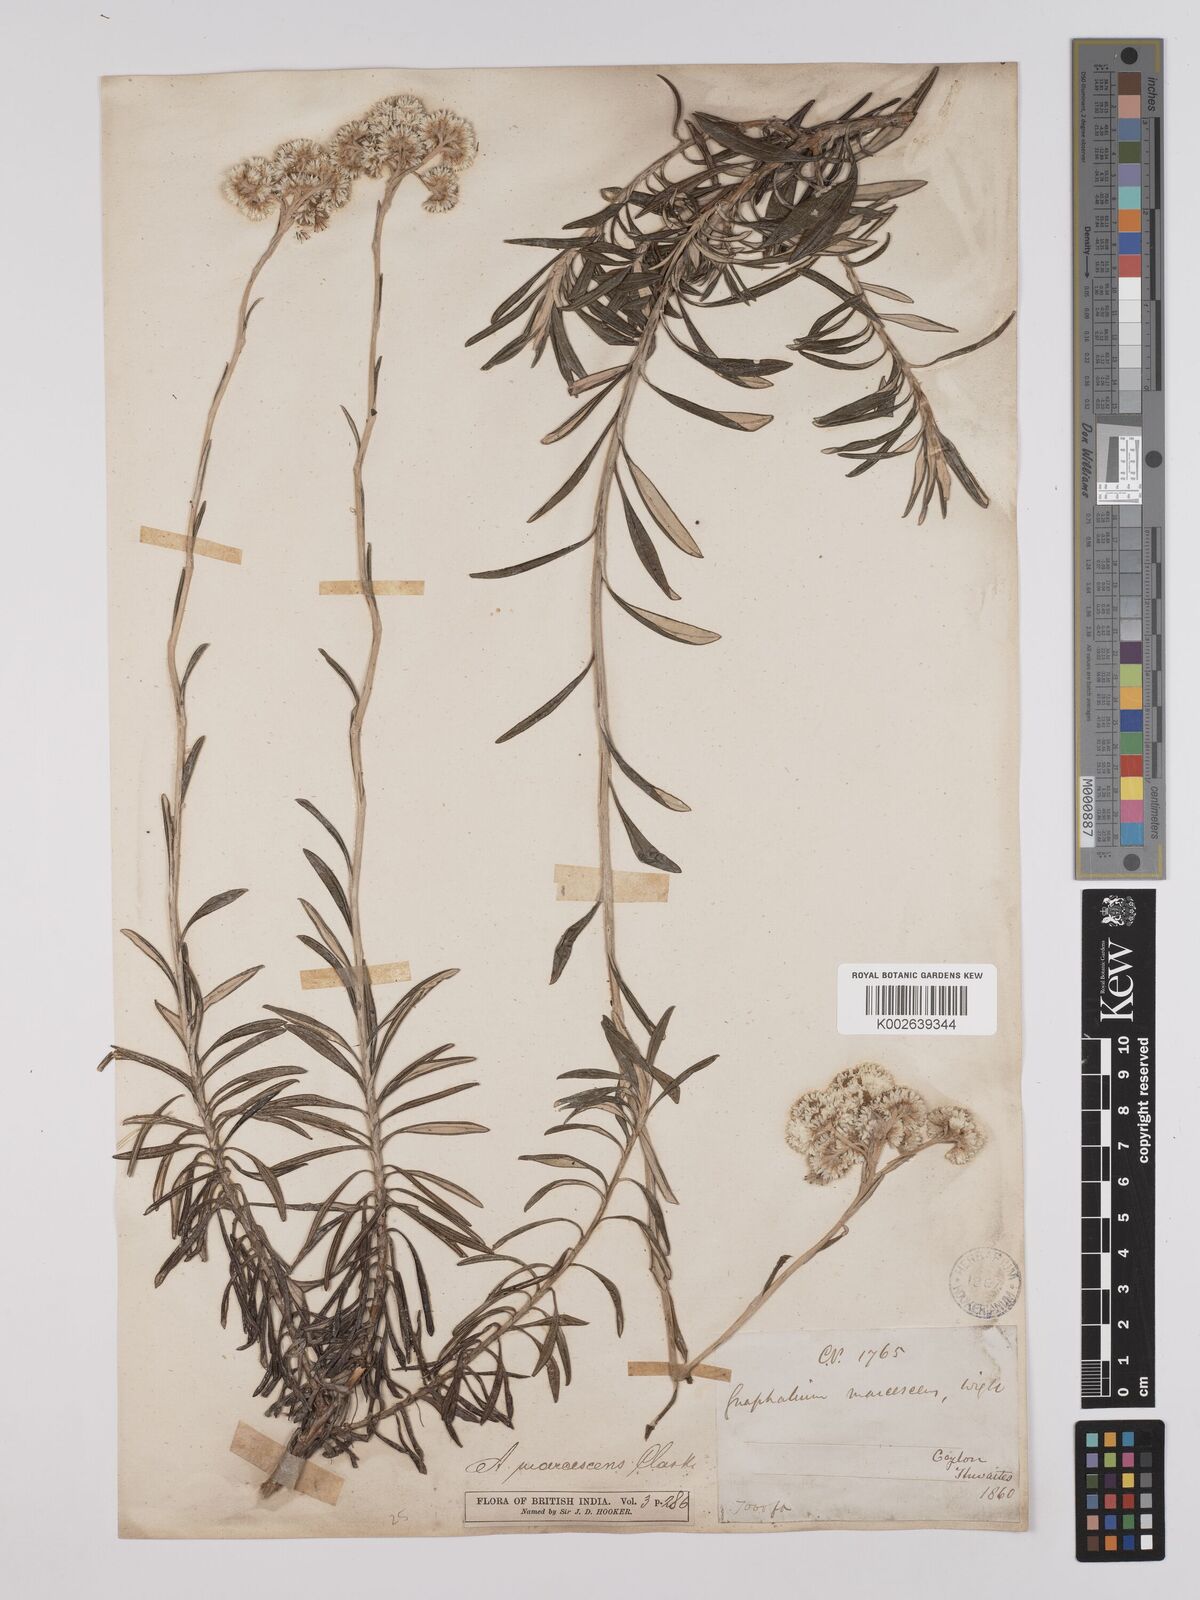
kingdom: Plantae
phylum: Tracheophyta
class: Magnoliopsida
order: Asterales
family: Asteraceae
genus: Anaphalis
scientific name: Anaphalis marcescens
